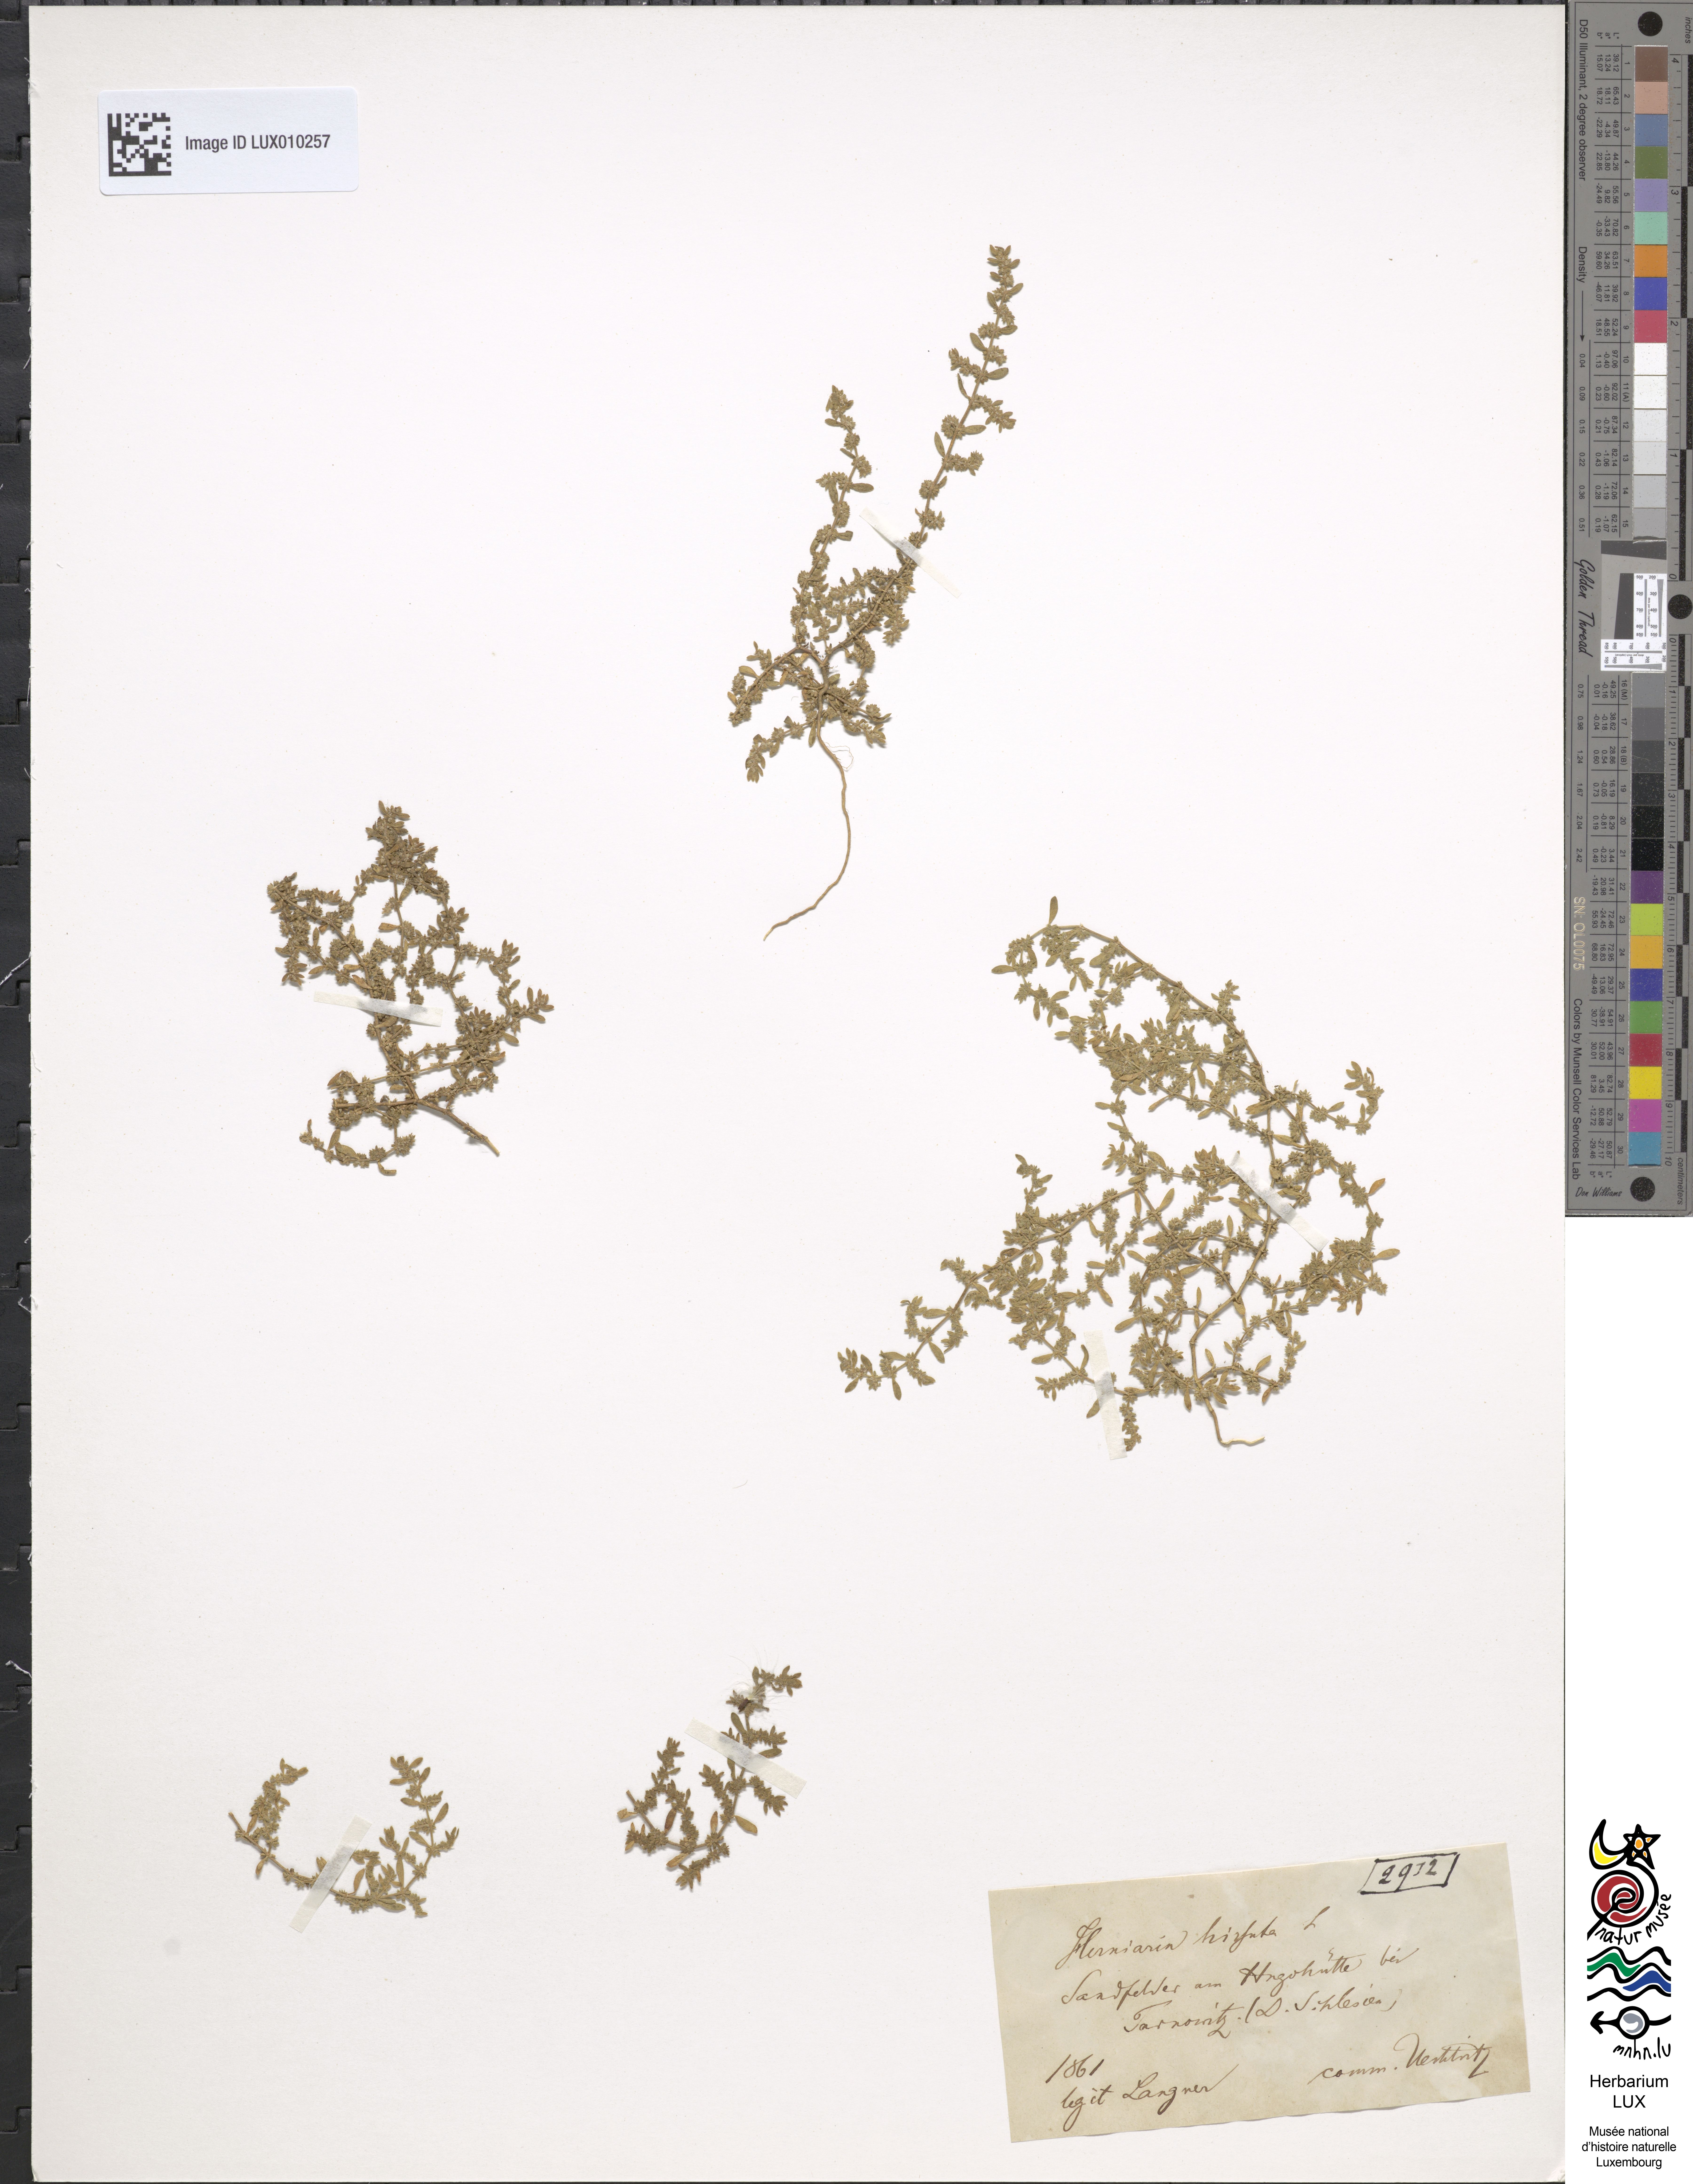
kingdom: Plantae
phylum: Tracheophyta
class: Magnoliopsida
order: Caryophyllales
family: Caryophyllaceae
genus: Herniaria
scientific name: Herniaria hirsuta
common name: Hairy rupturewort
